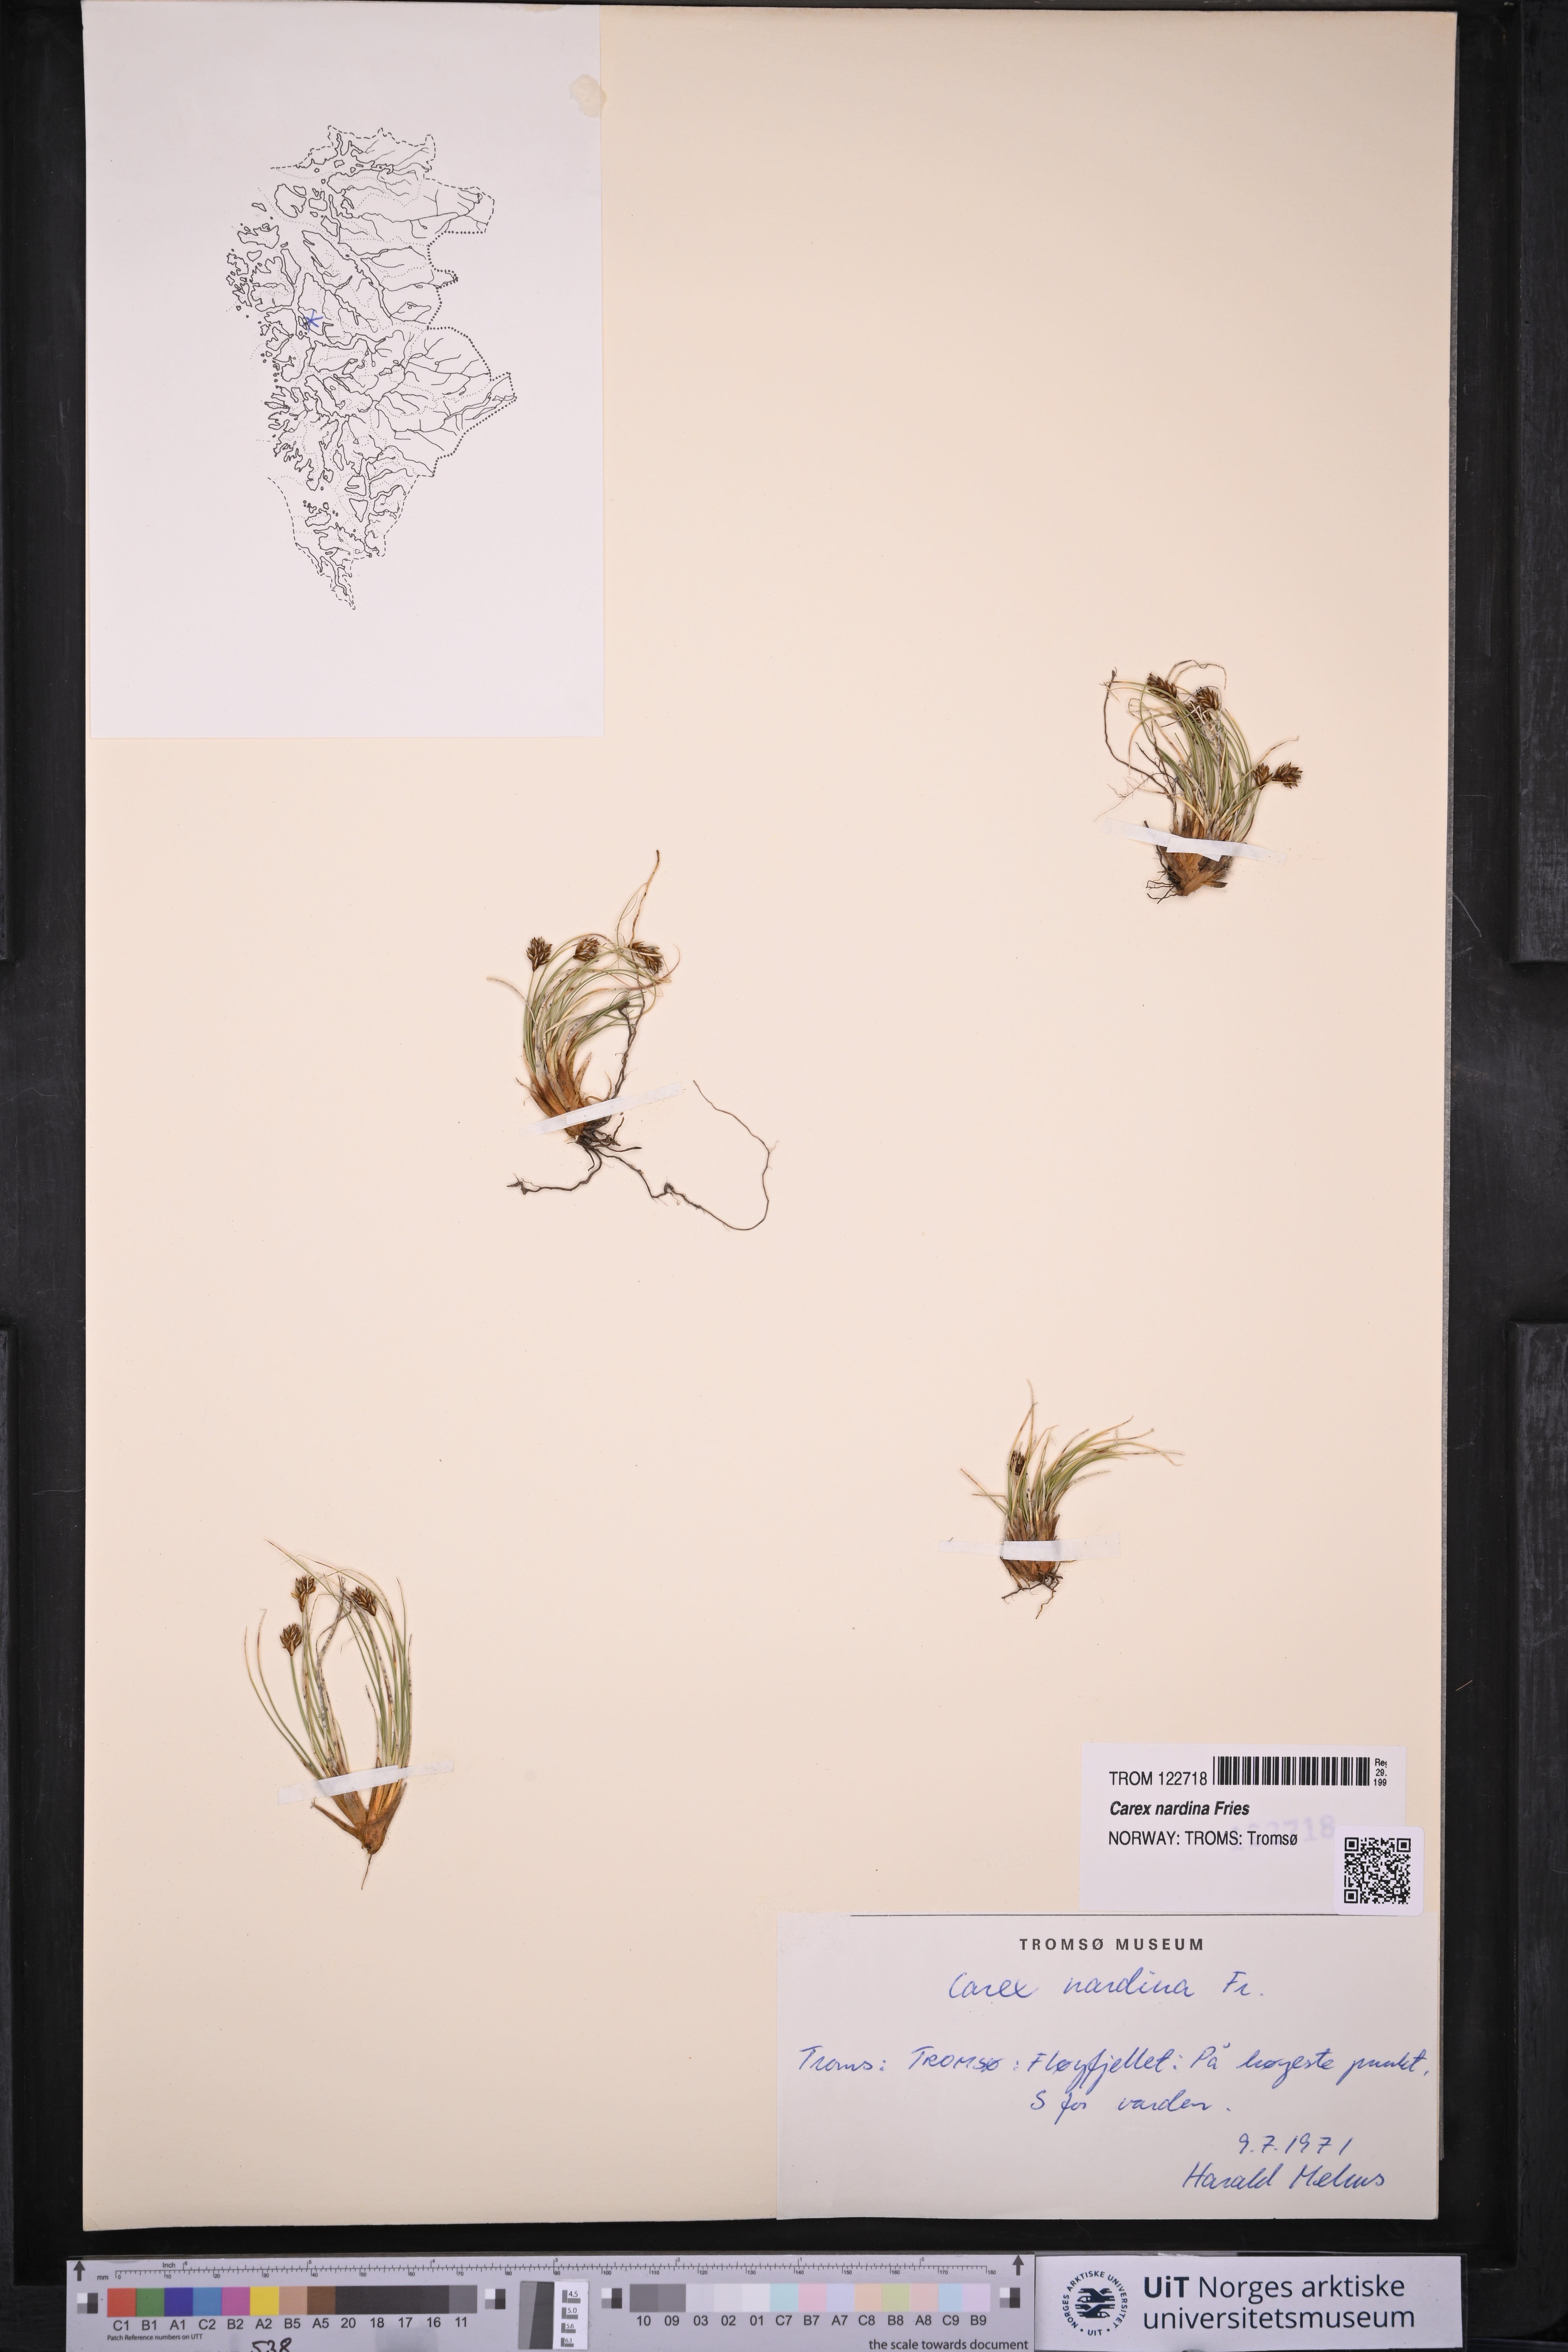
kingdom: Plantae
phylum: Tracheophyta
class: Liliopsida
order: Poales
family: Cyperaceae
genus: Carex
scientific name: Carex nardina
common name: Nard sedge
